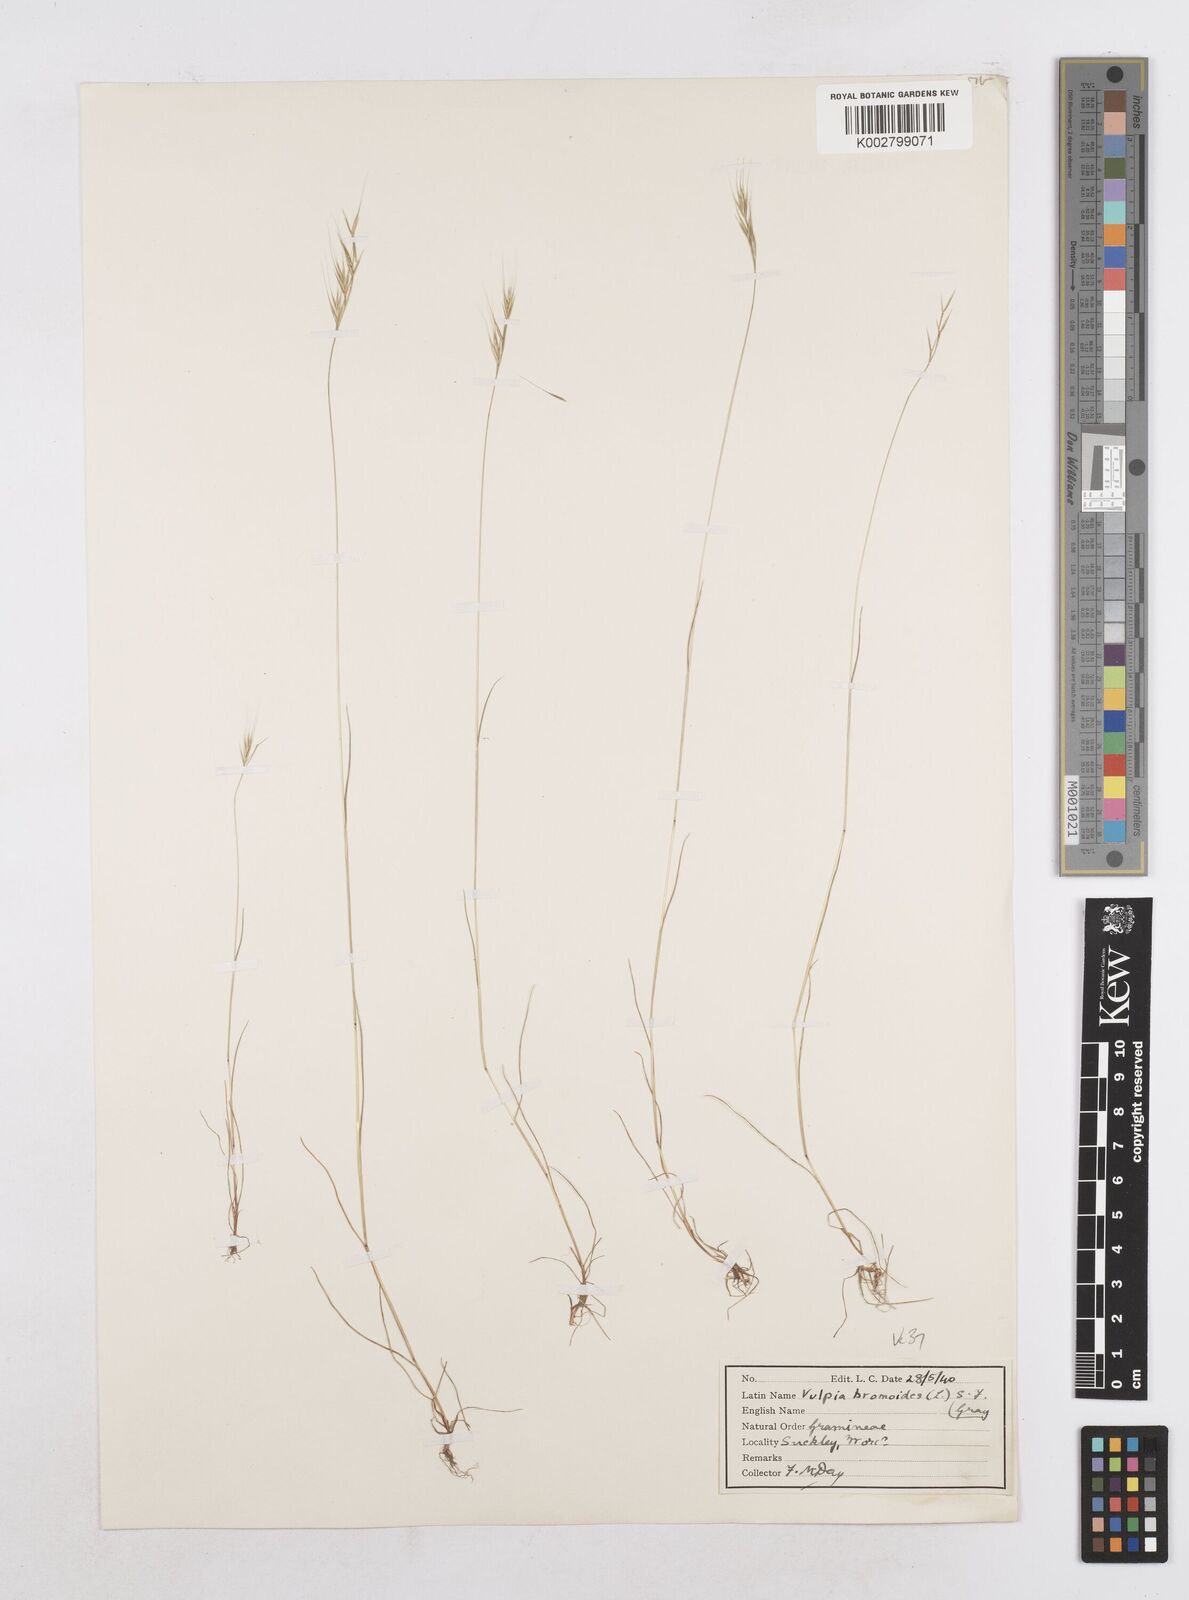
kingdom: Plantae
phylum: Tracheophyta
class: Liliopsida
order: Poales
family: Poaceae
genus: Festuca
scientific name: Festuca bromoides
